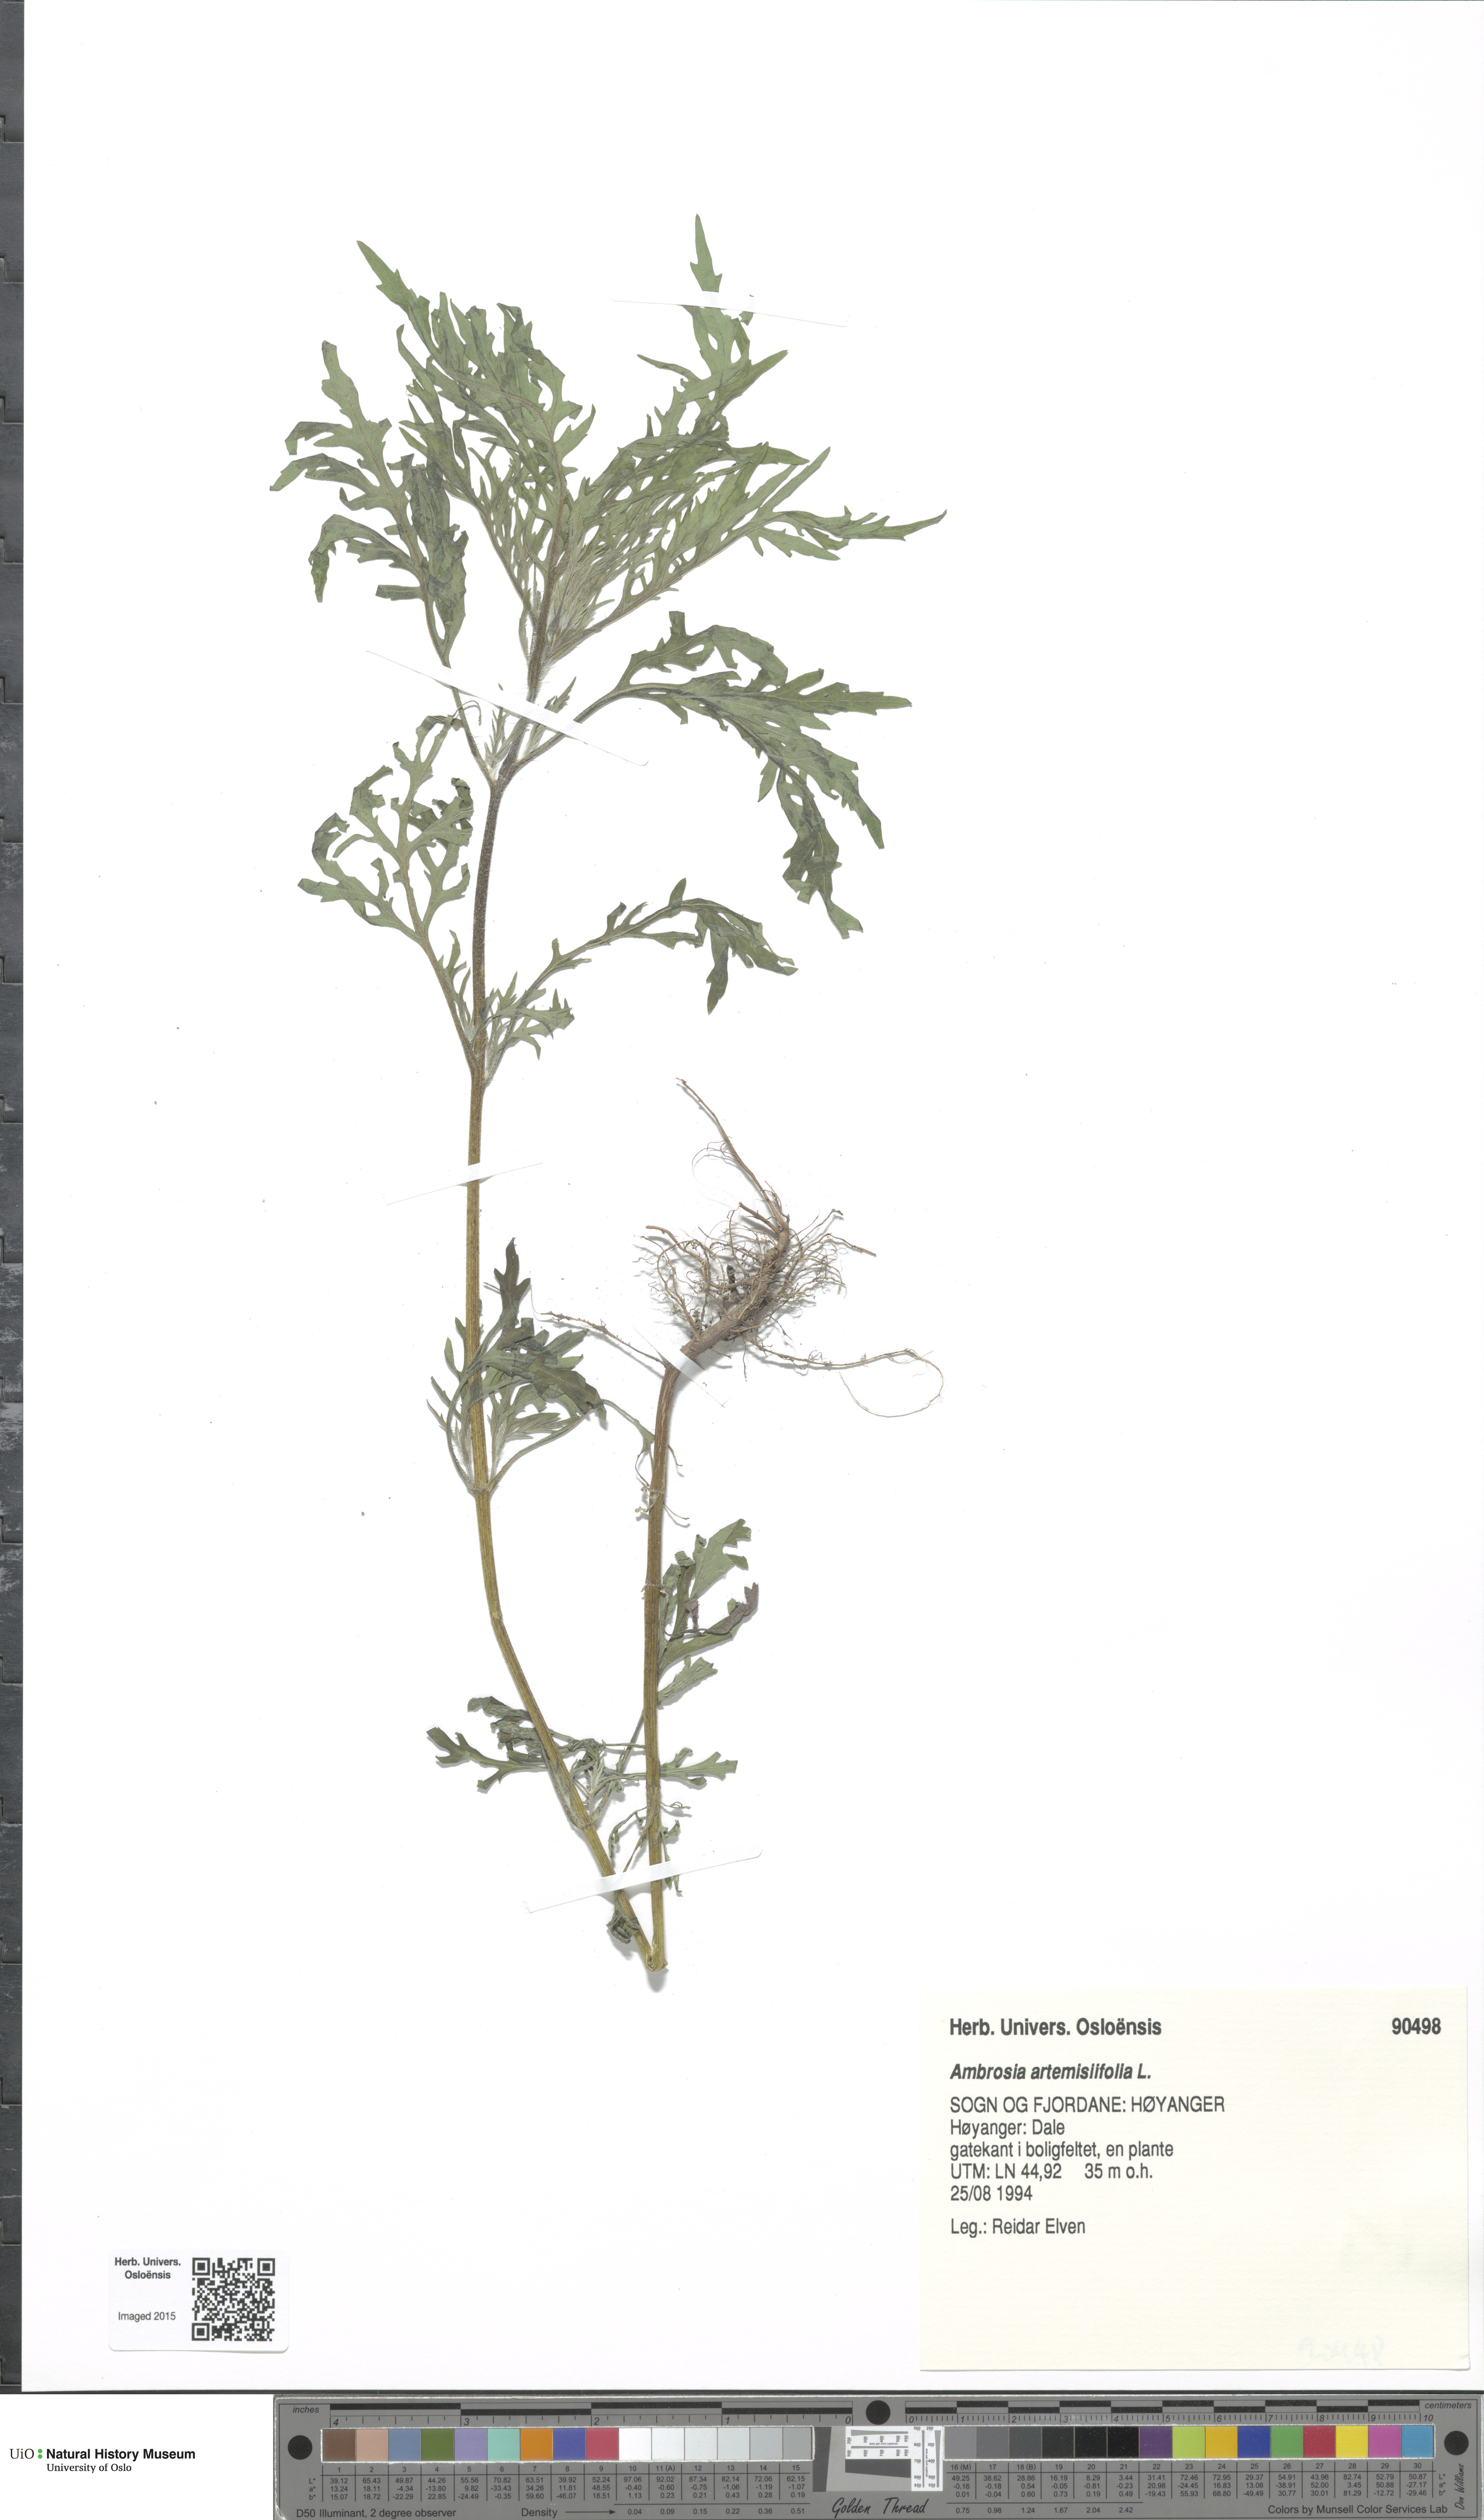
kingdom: Plantae
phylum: Tracheophyta
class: Magnoliopsida
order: Asterales
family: Asteraceae
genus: Ambrosia
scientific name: Ambrosia artemisiifolia
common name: Annual ragweed
